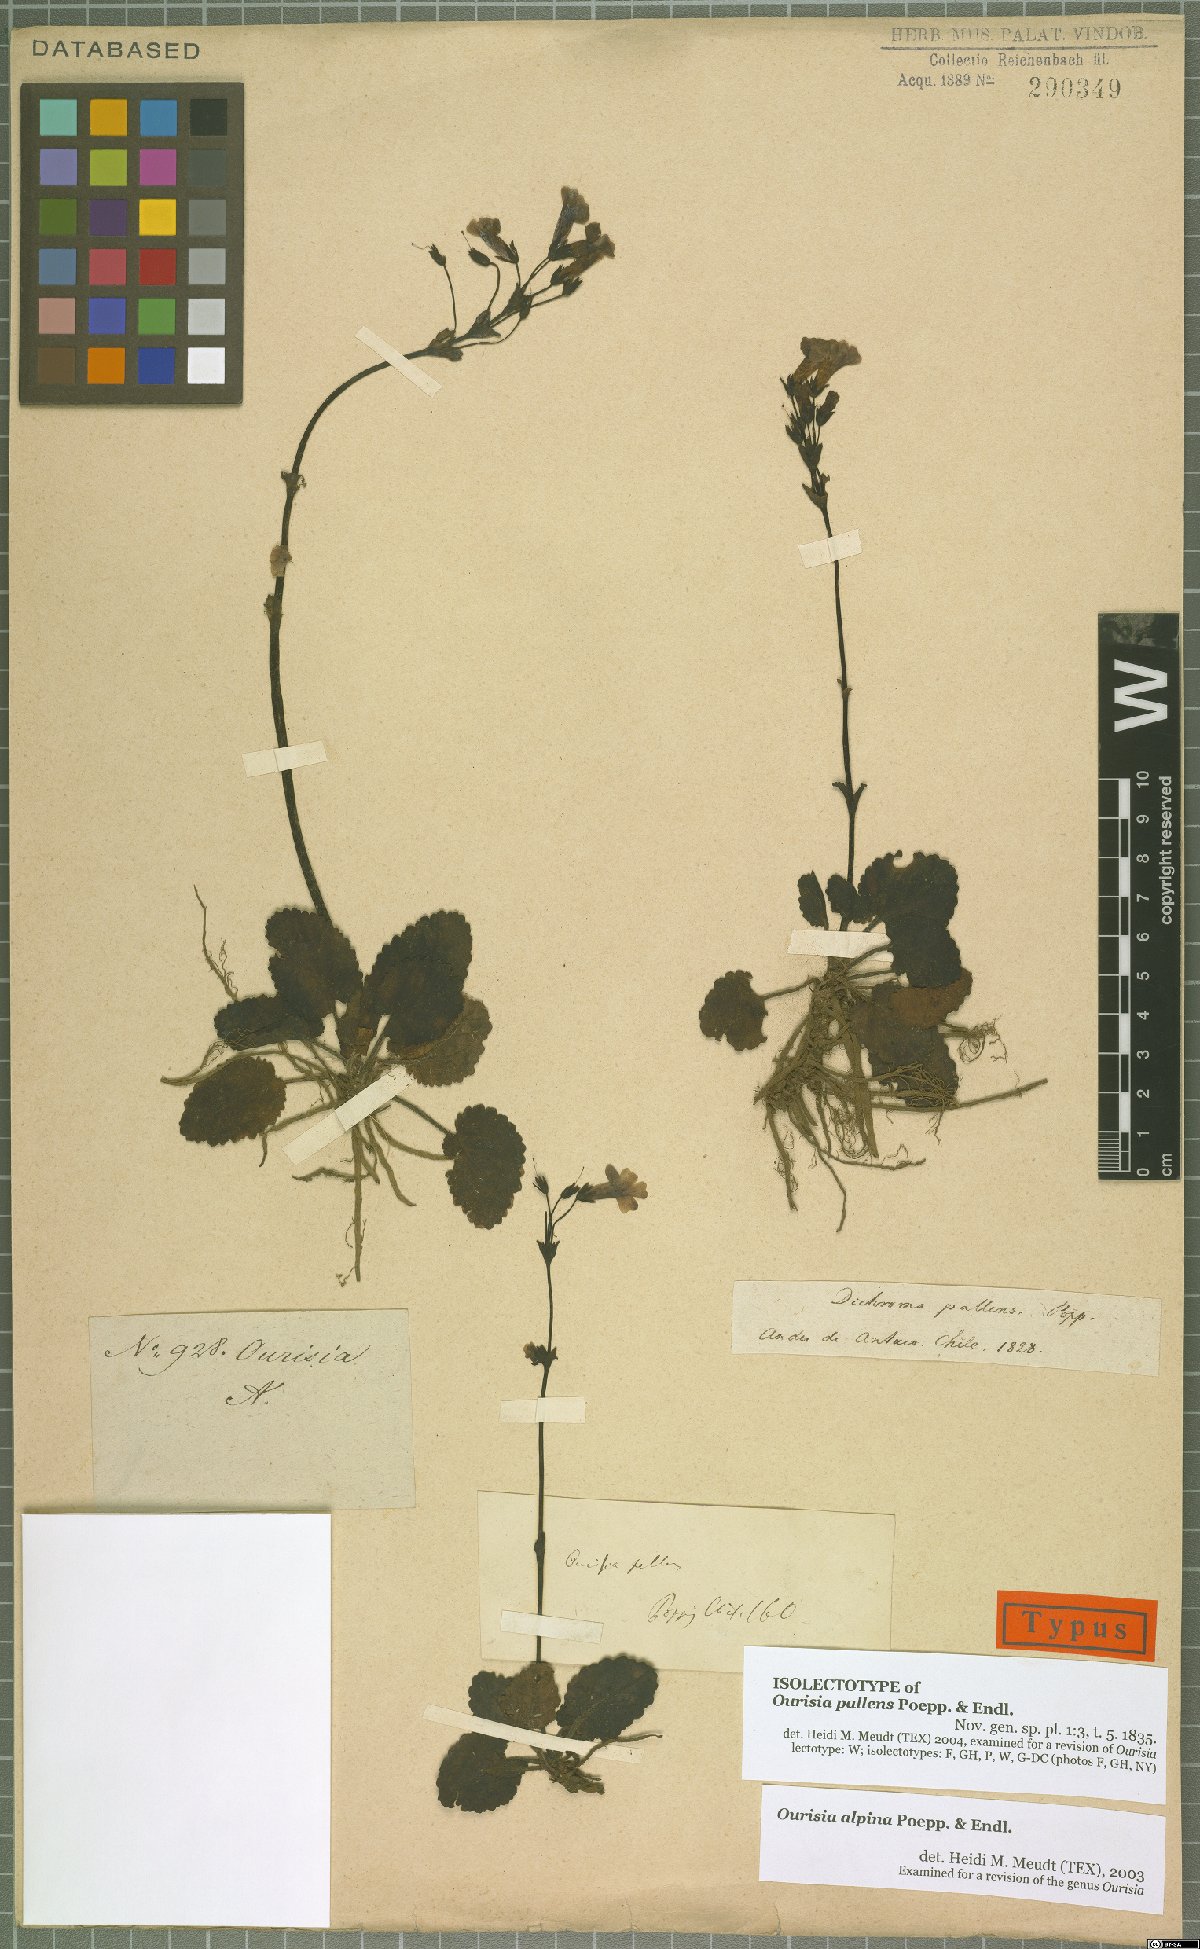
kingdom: Plantae
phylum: Tracheophyta
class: Magnoliopsida
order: Lamiales
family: Plantaginaceae
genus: Ourisia
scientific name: Ourisia alpina
